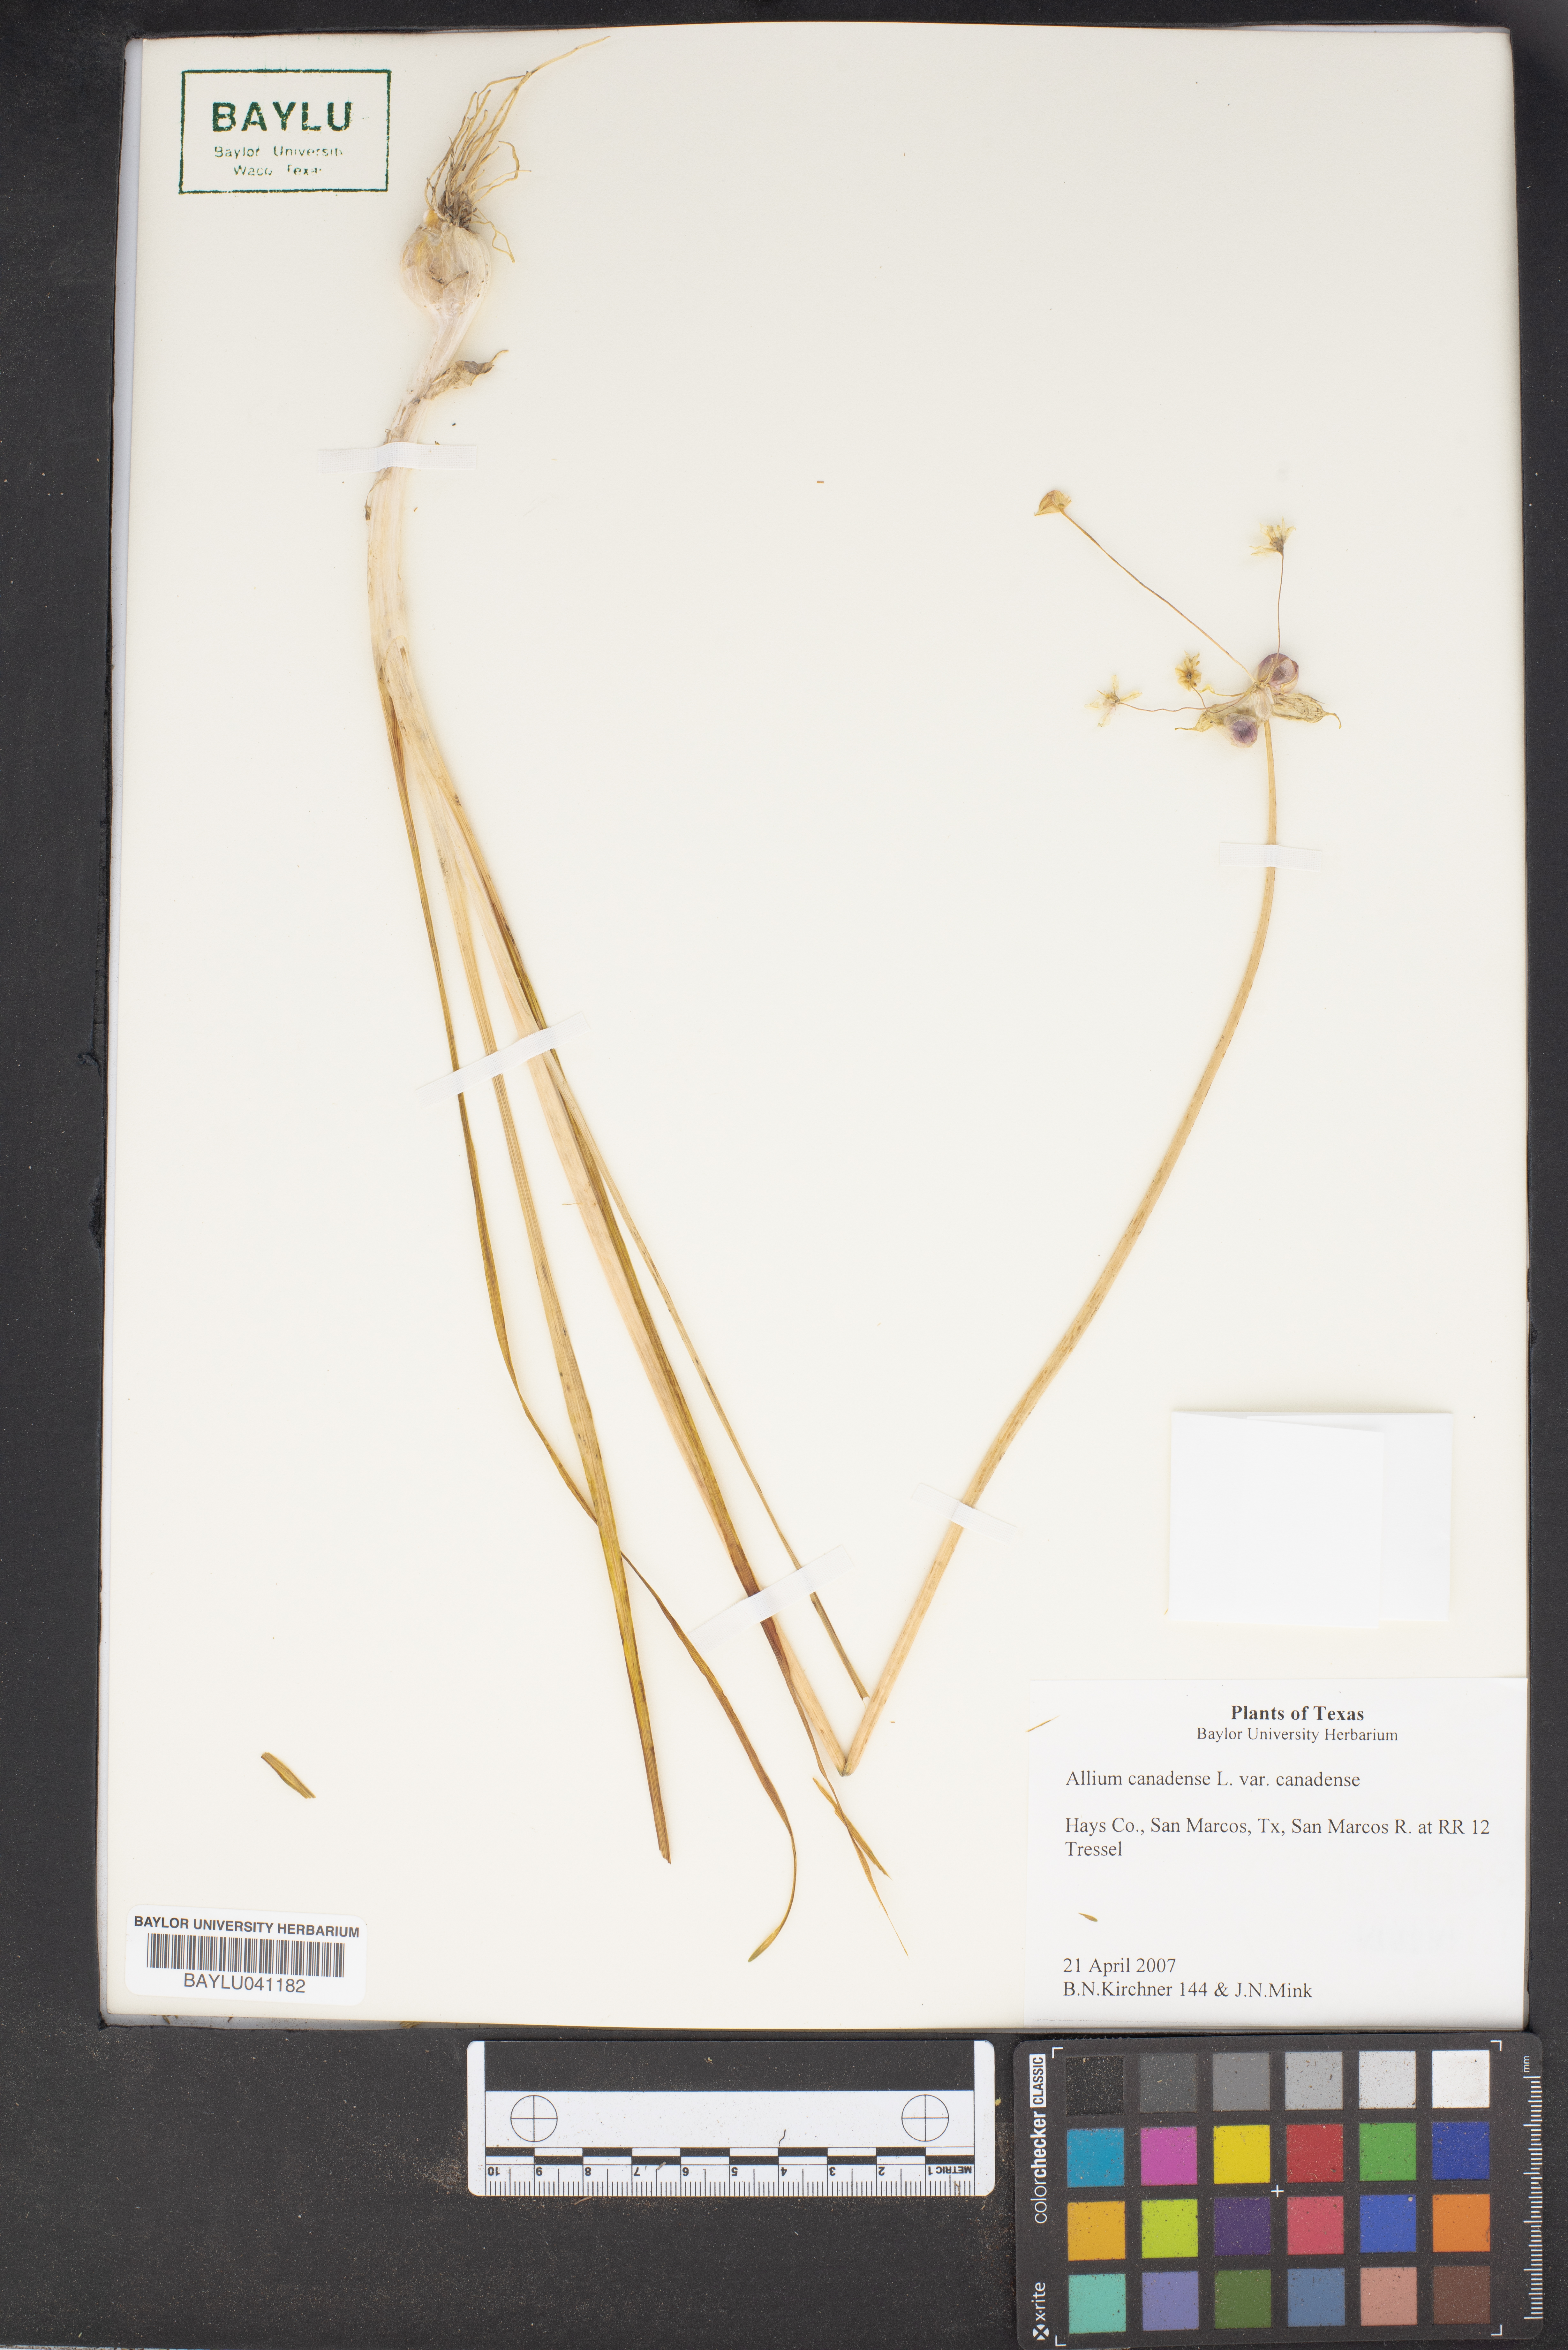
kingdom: Plantae
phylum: Tracheophyta
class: Liliopsida
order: Asparagales
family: Amaryllidaceae
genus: Allium
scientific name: Allium canadense
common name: Meadow garlic
